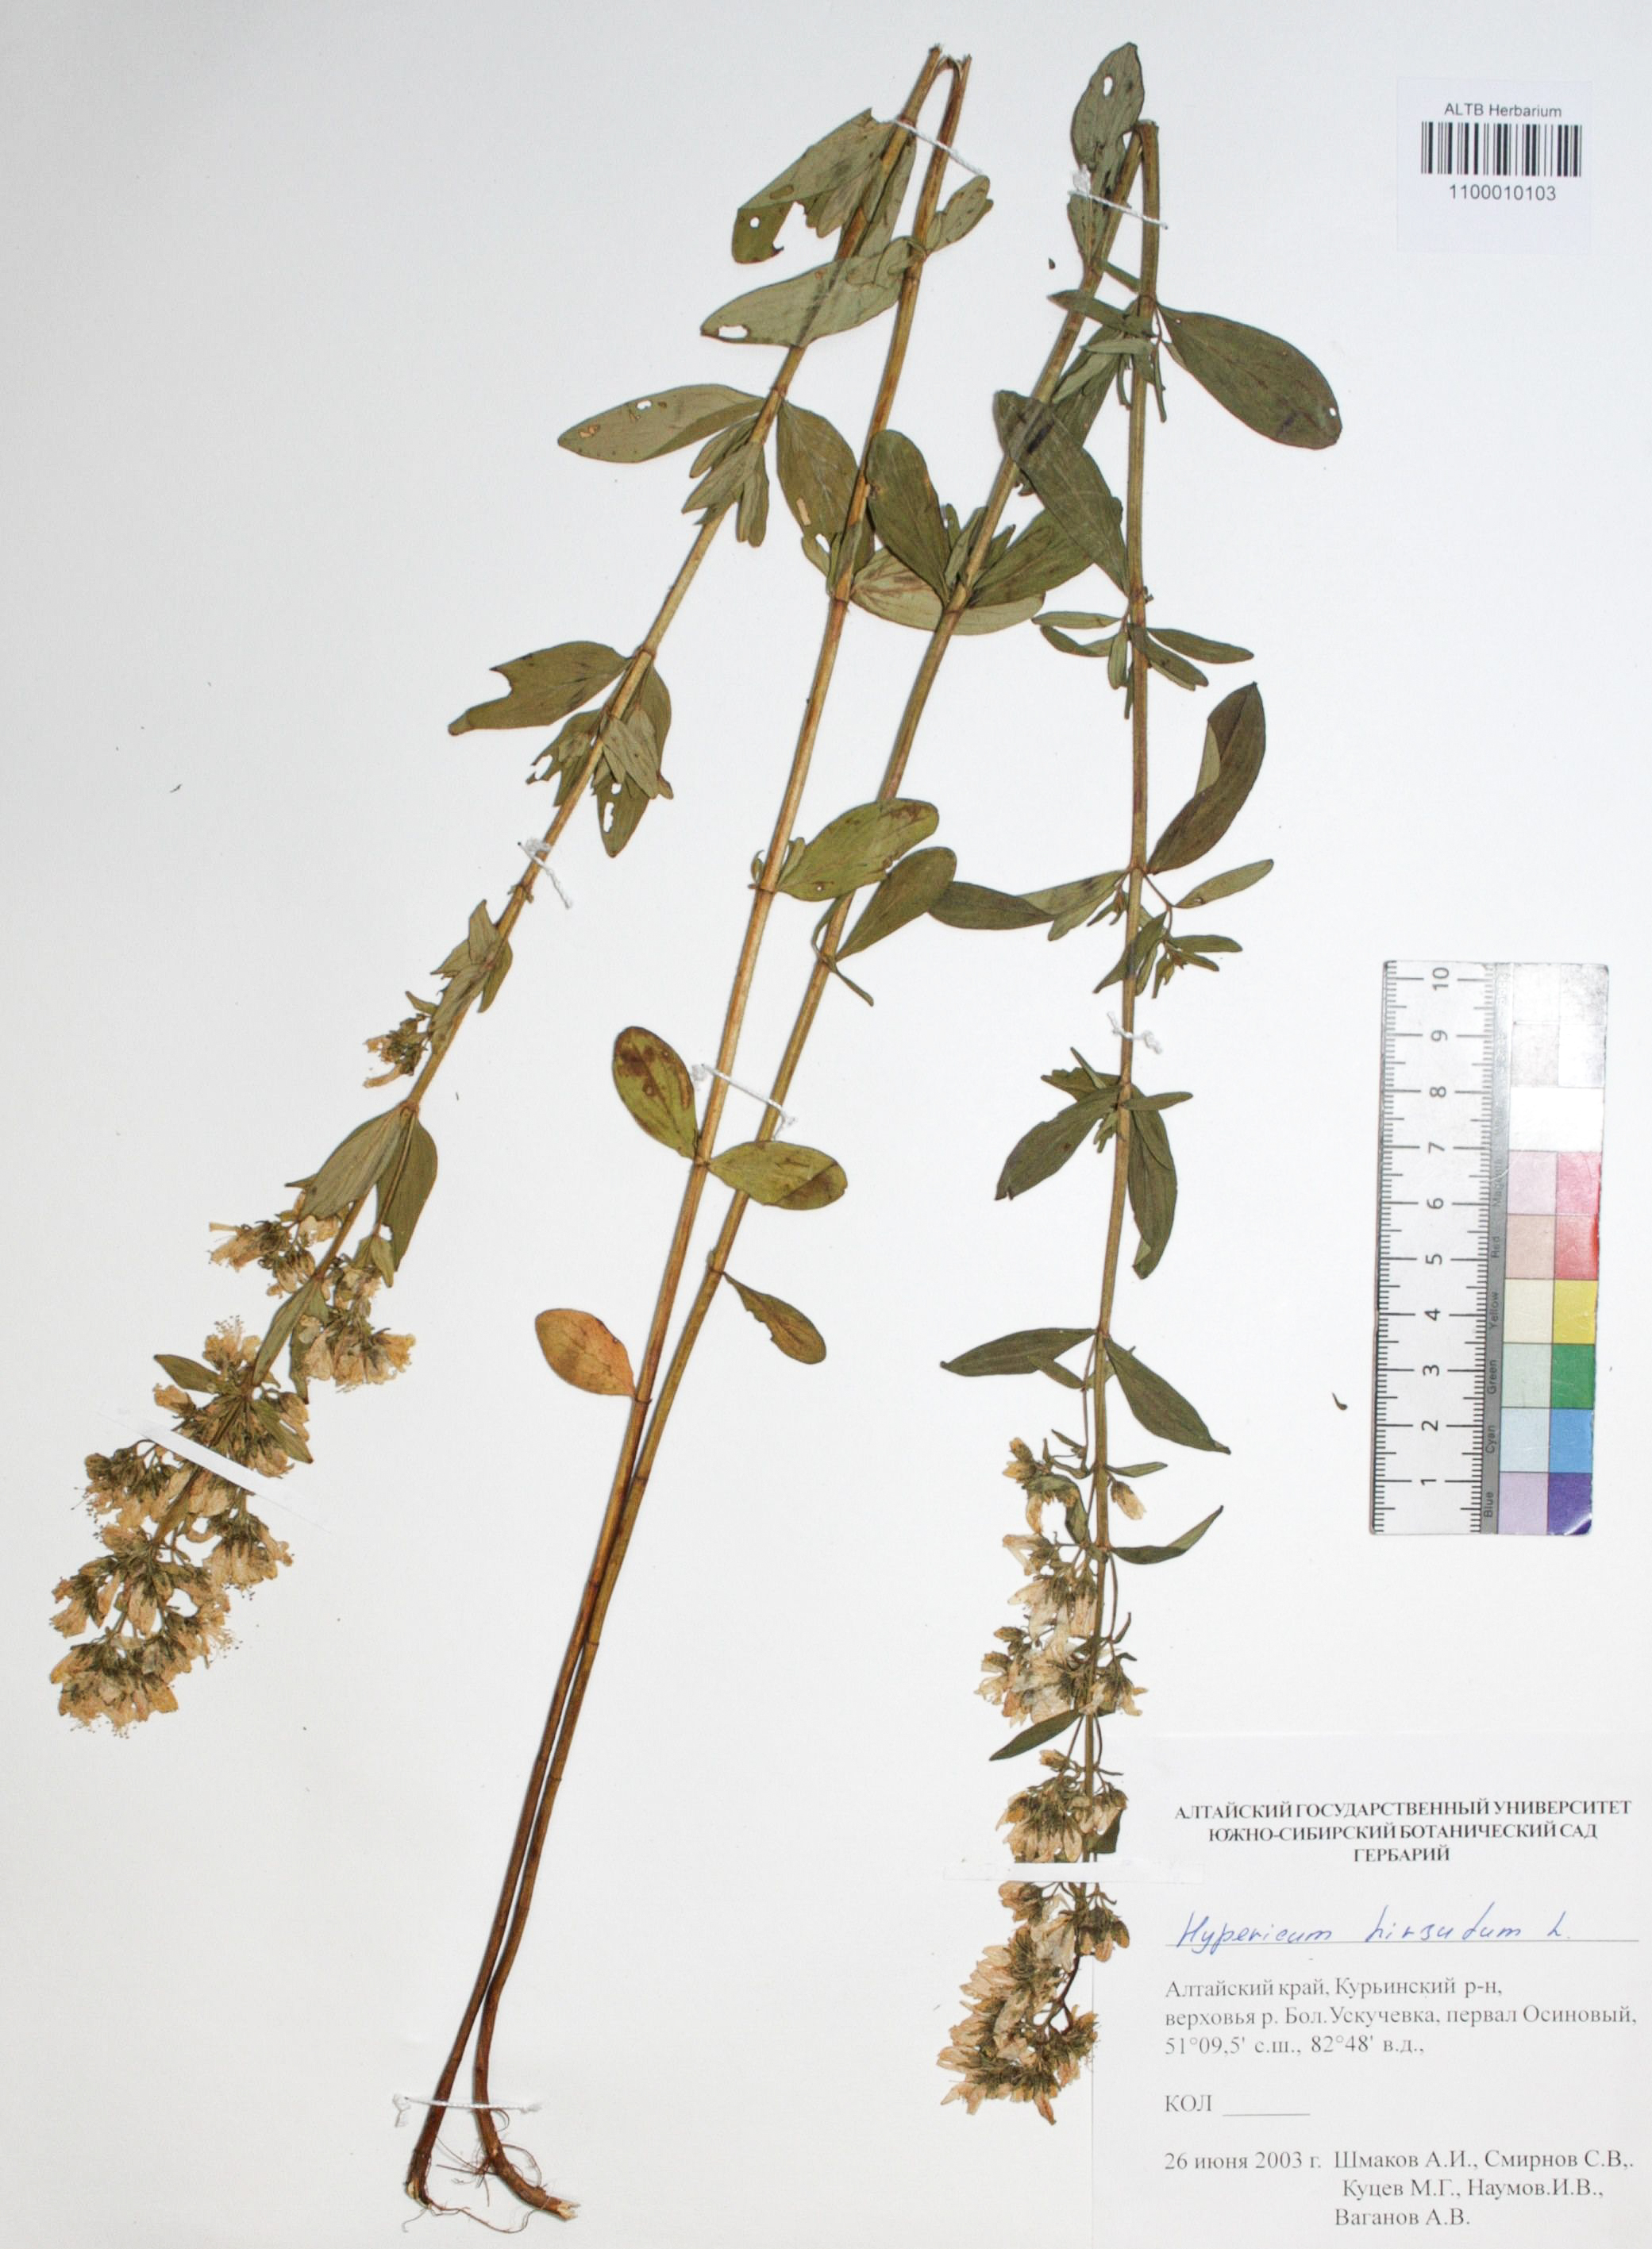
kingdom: Plantae
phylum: Tracheophyta
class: Magnoliopsida
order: Malpighiales
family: Hypericaceae
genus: Hypericum
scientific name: Hypericum hirsutum
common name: Hairy st. john's-wort
